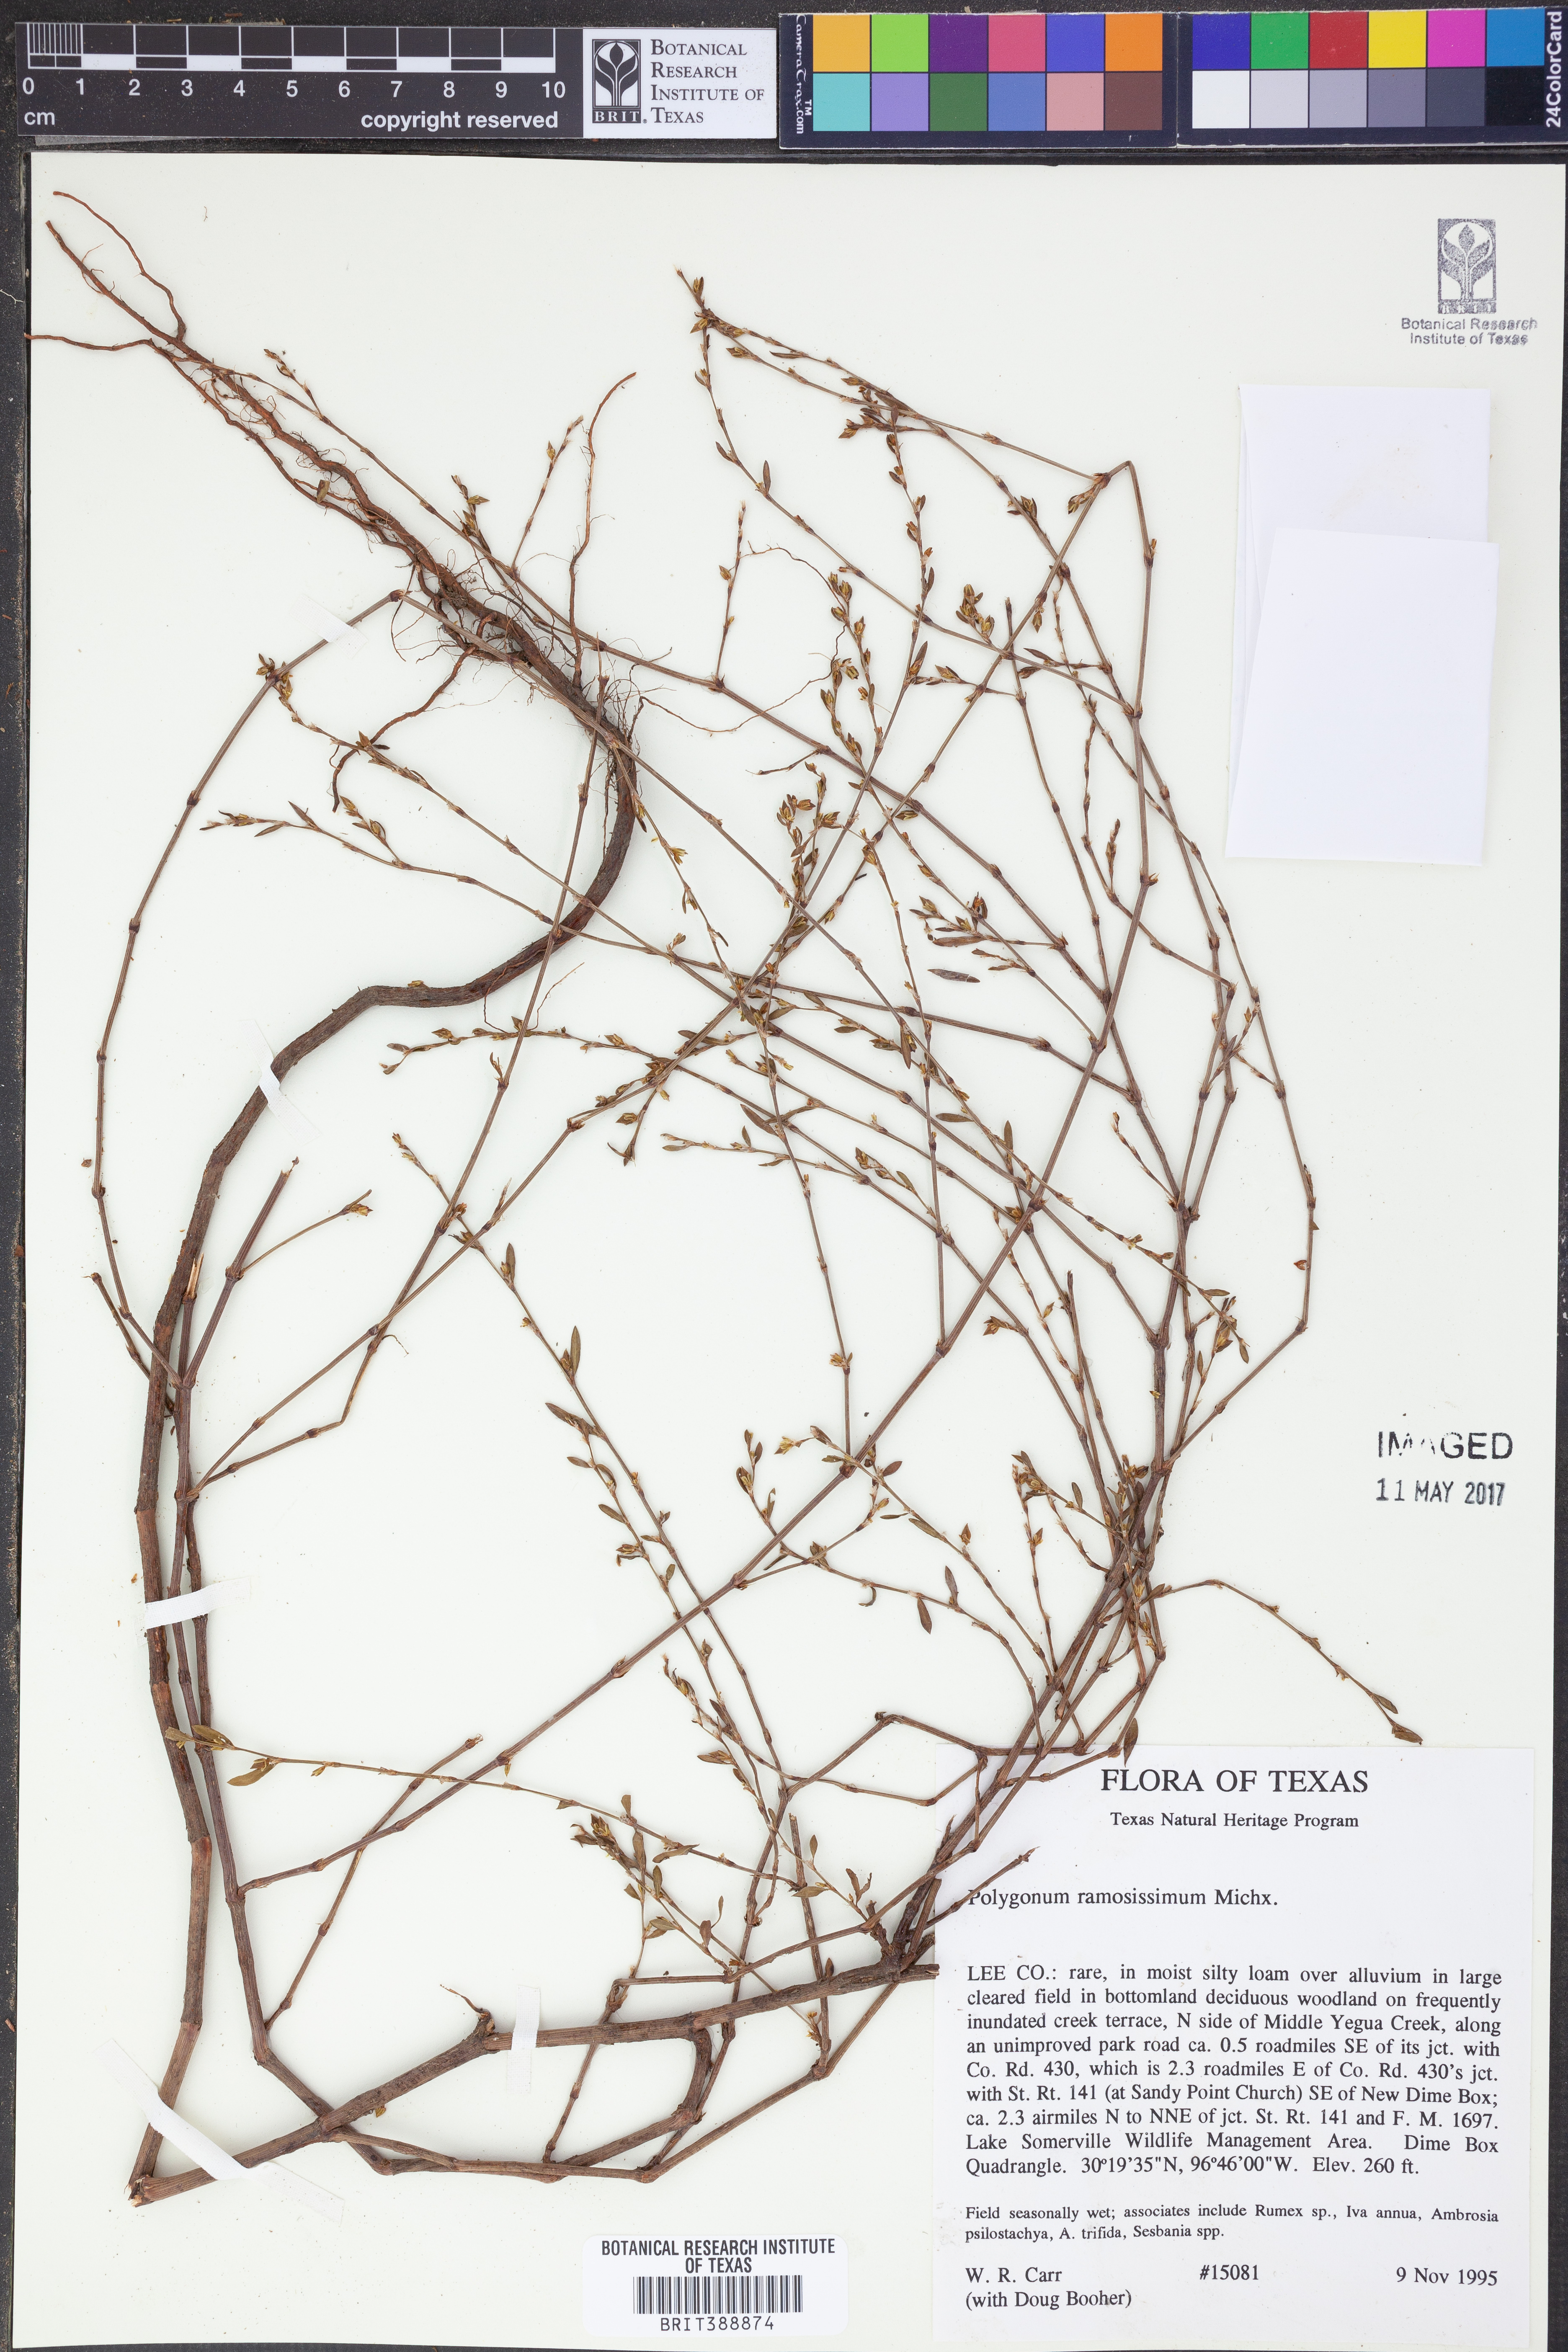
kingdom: Plantae
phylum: Tracheophyta
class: Magnoliopsida
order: Caryophyllales
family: Polygonaceae
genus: Polygonum
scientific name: Polygonum ramosissimum
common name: Bushy knotweed
